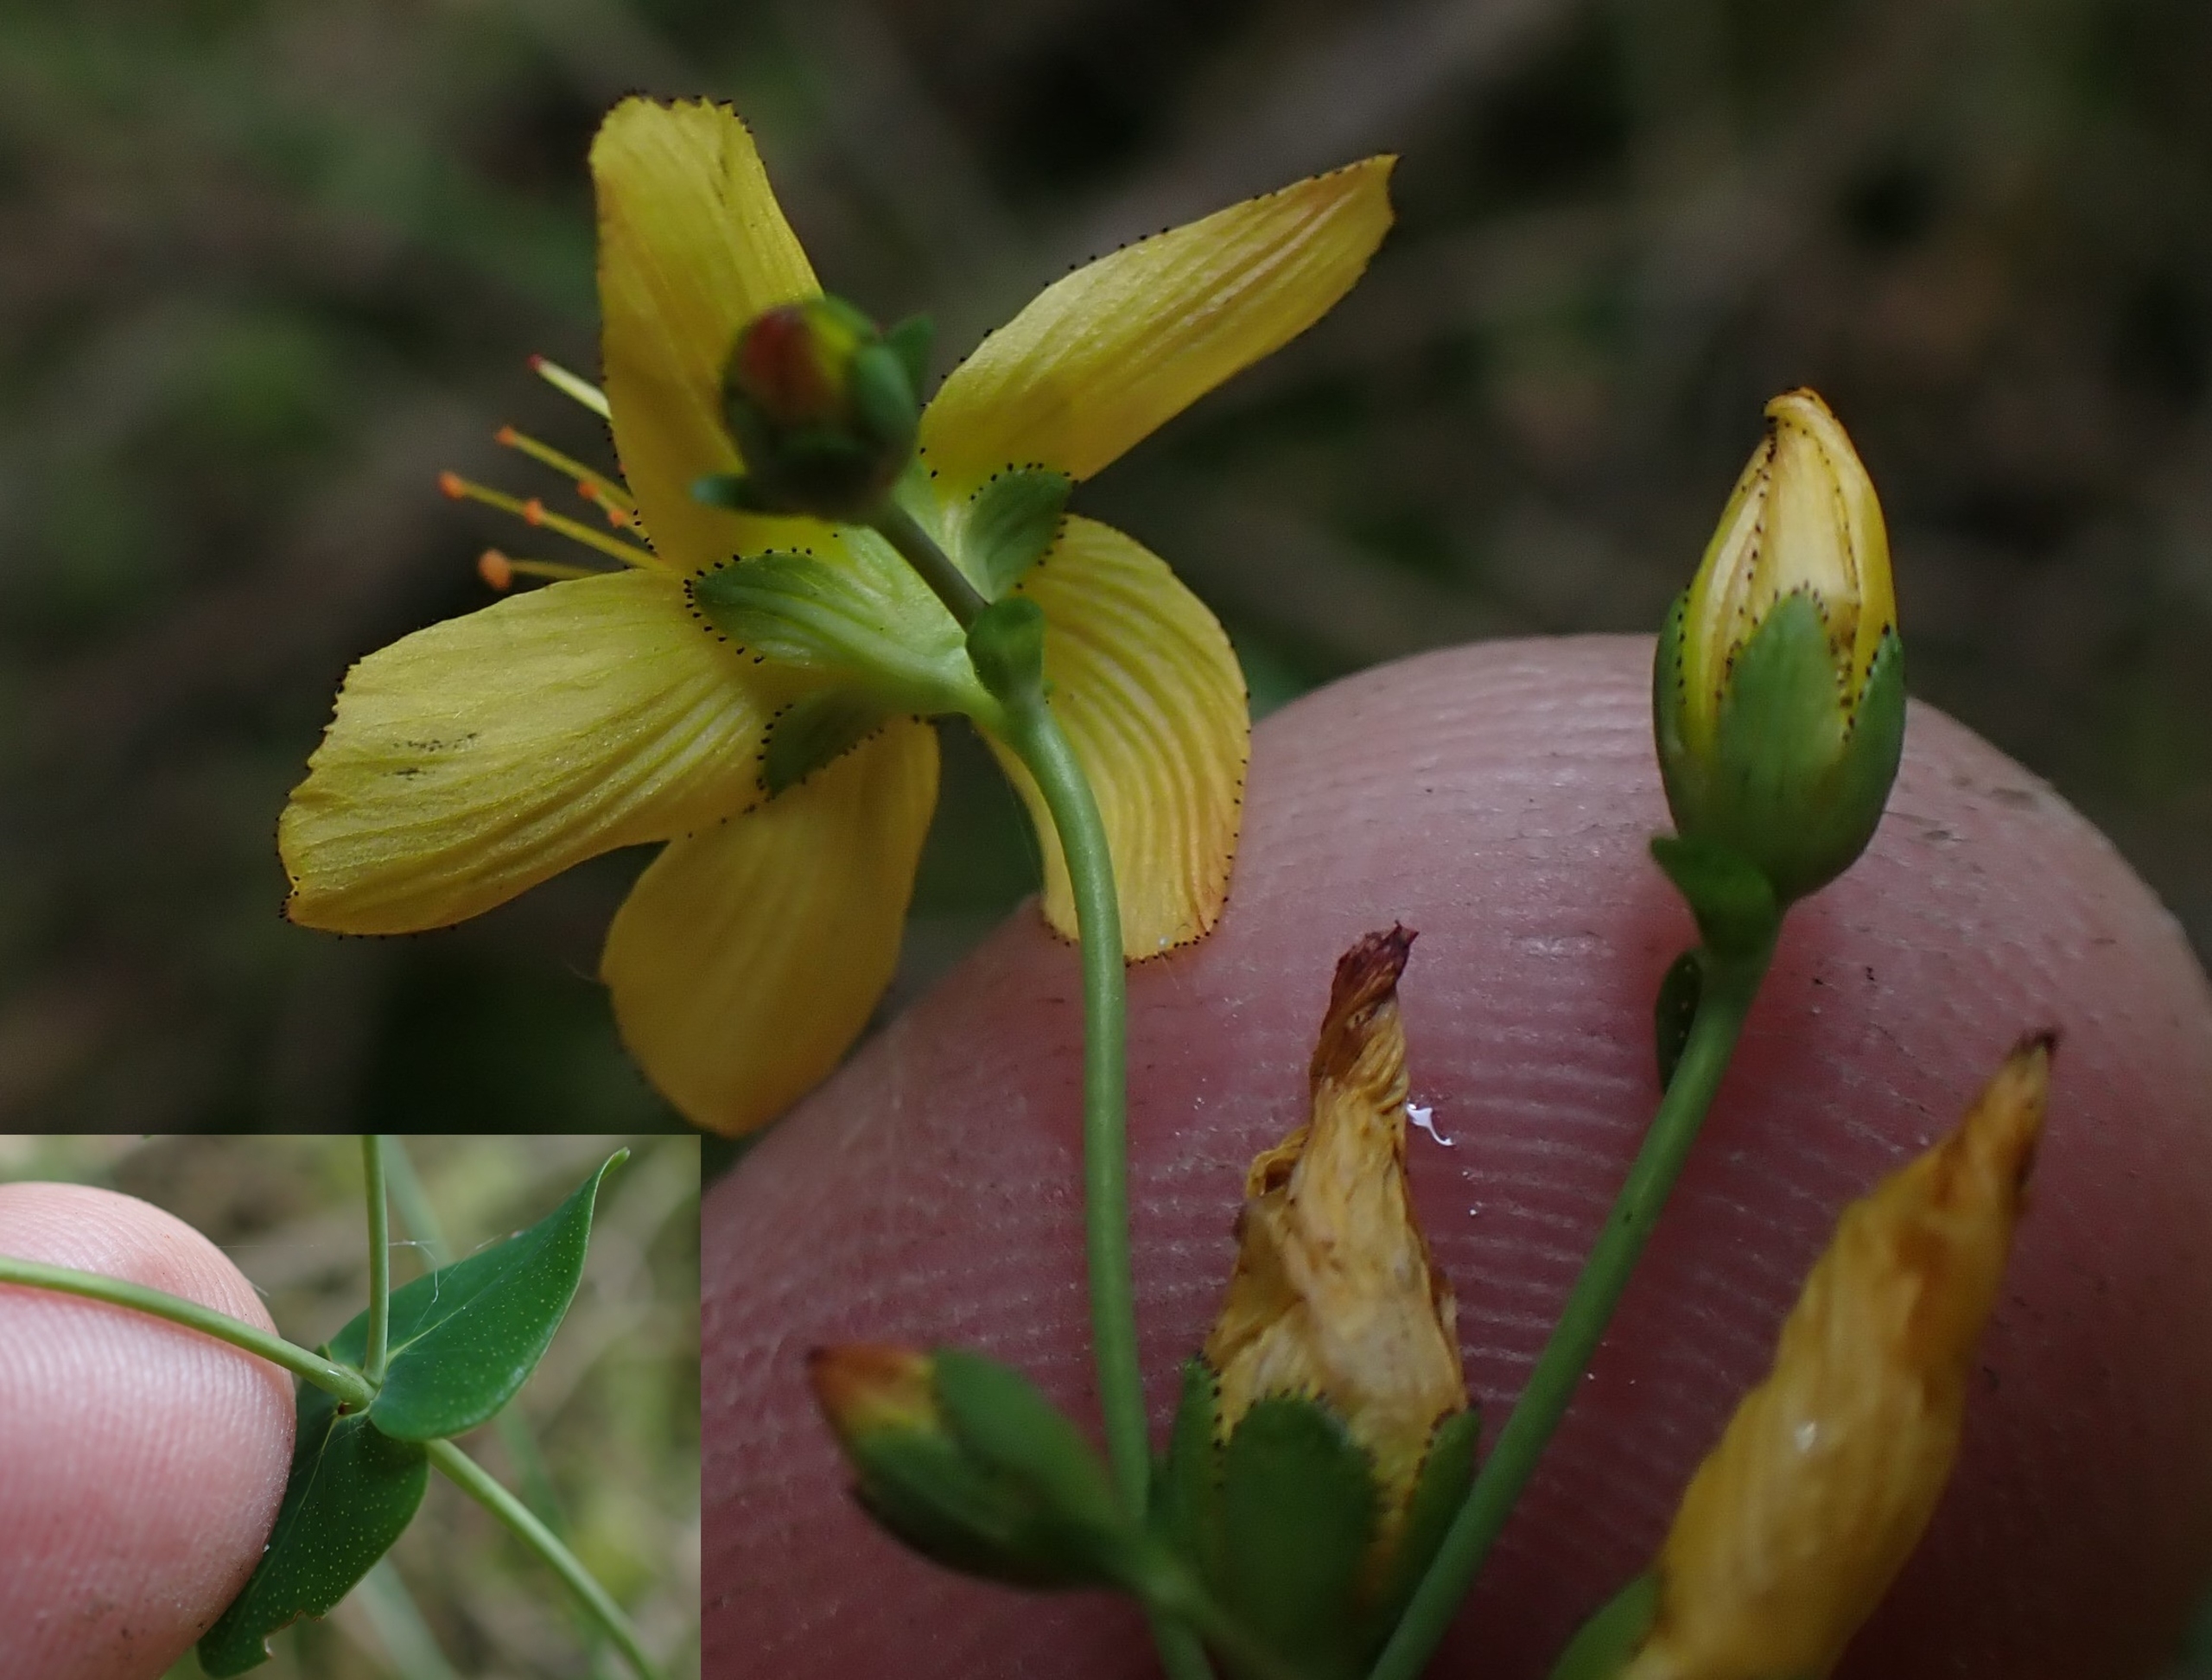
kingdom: Plantae
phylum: Tracheophyta
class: Magnoliopsida
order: Malpighiales
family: Hypericaceae
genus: Hypericum
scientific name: Hypericum pulchrum
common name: Smuk perikon
